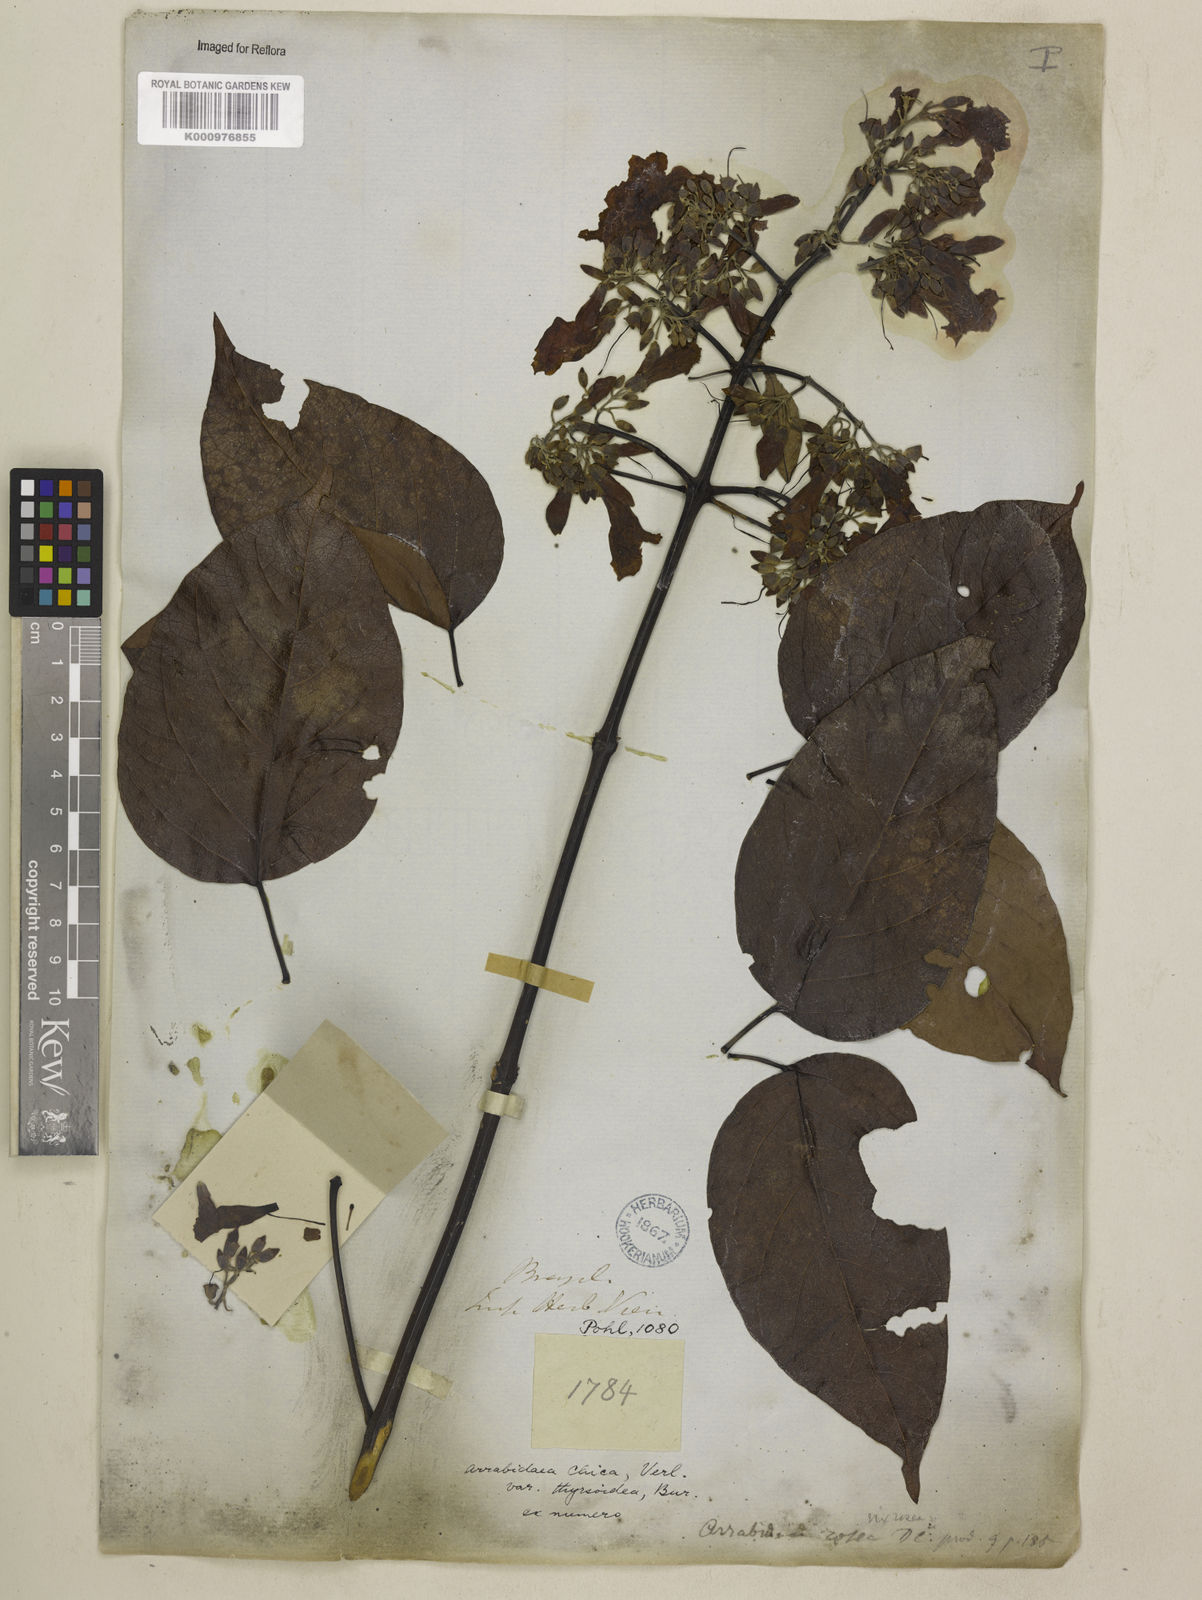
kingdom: Plantae
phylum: Tracheophyta
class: Magnoliopsida
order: Lamiales
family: Bignoniaceae
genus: Fridericia
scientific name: Fridericia chica
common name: Cricketvine
